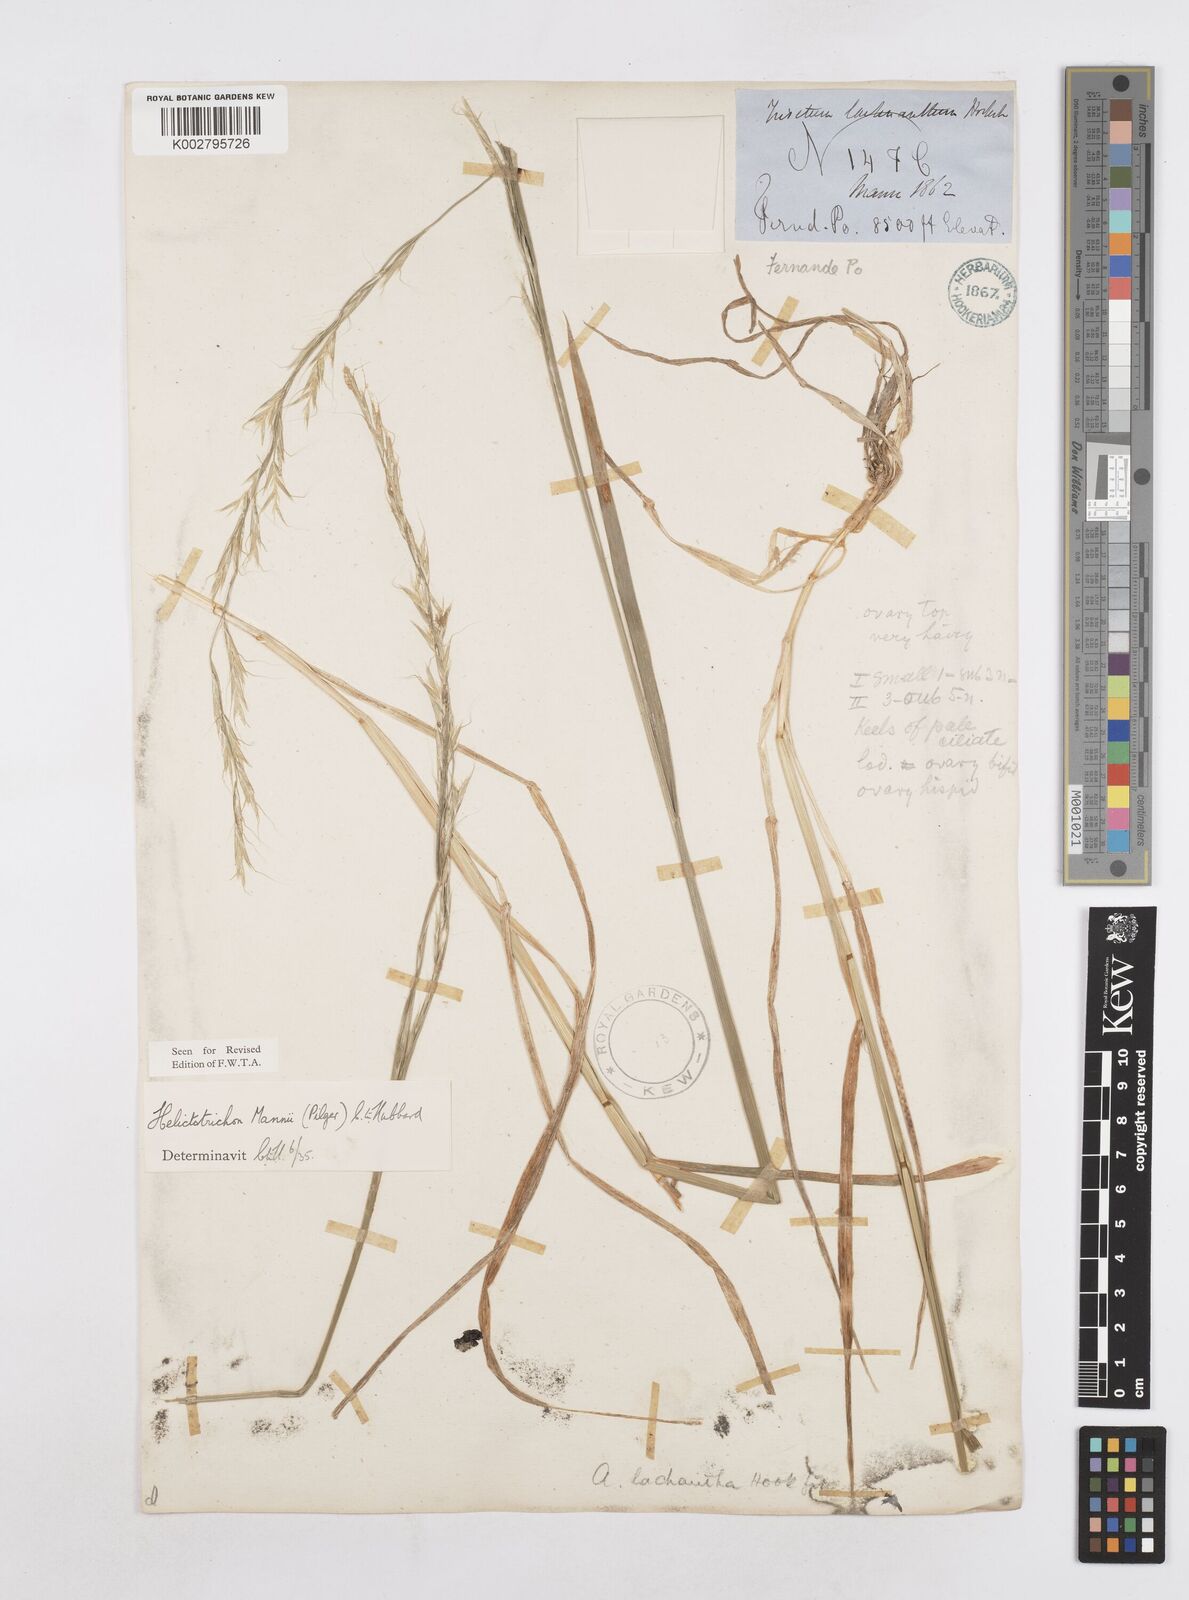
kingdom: Plantae
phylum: Tracheophyta
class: Liliopsida
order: Poales
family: Poaceae
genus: Trisetopsis
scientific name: Trisetopsis mannii
